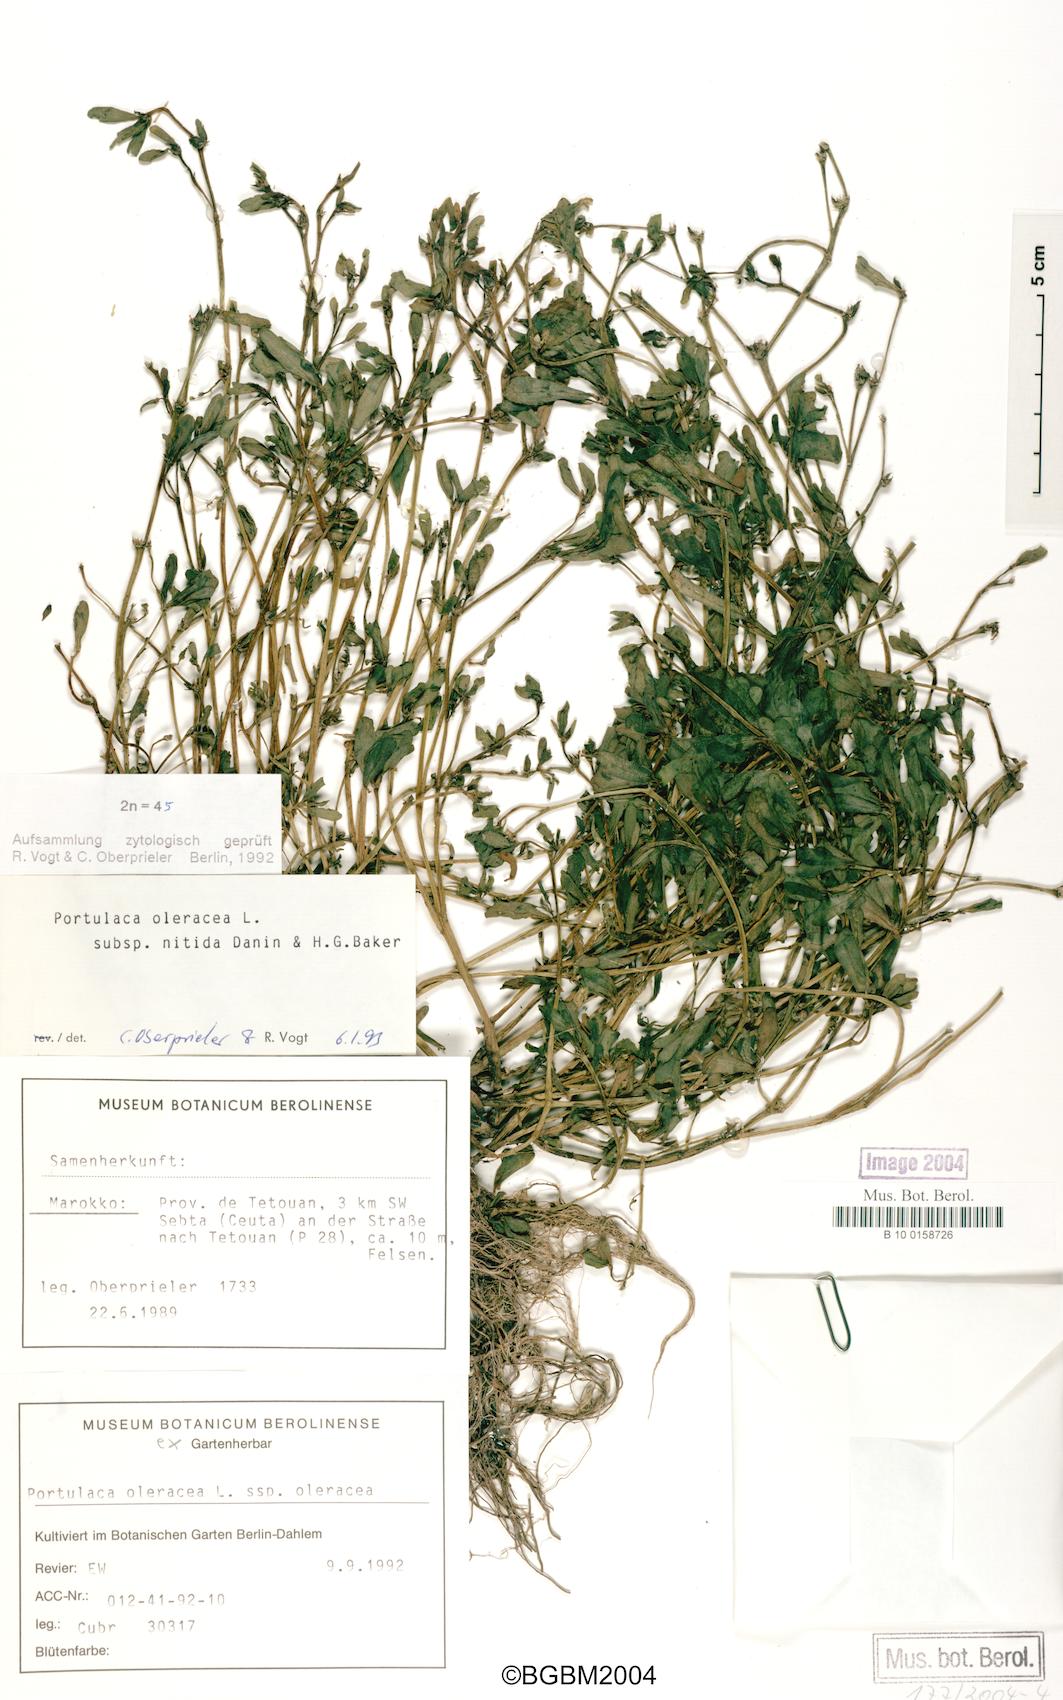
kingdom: Plantae
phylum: Tracheophyta
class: Magnoliopsida
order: Caryophyllales
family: Portulacaceae
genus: Portulaca
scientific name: Portulaca nitida
